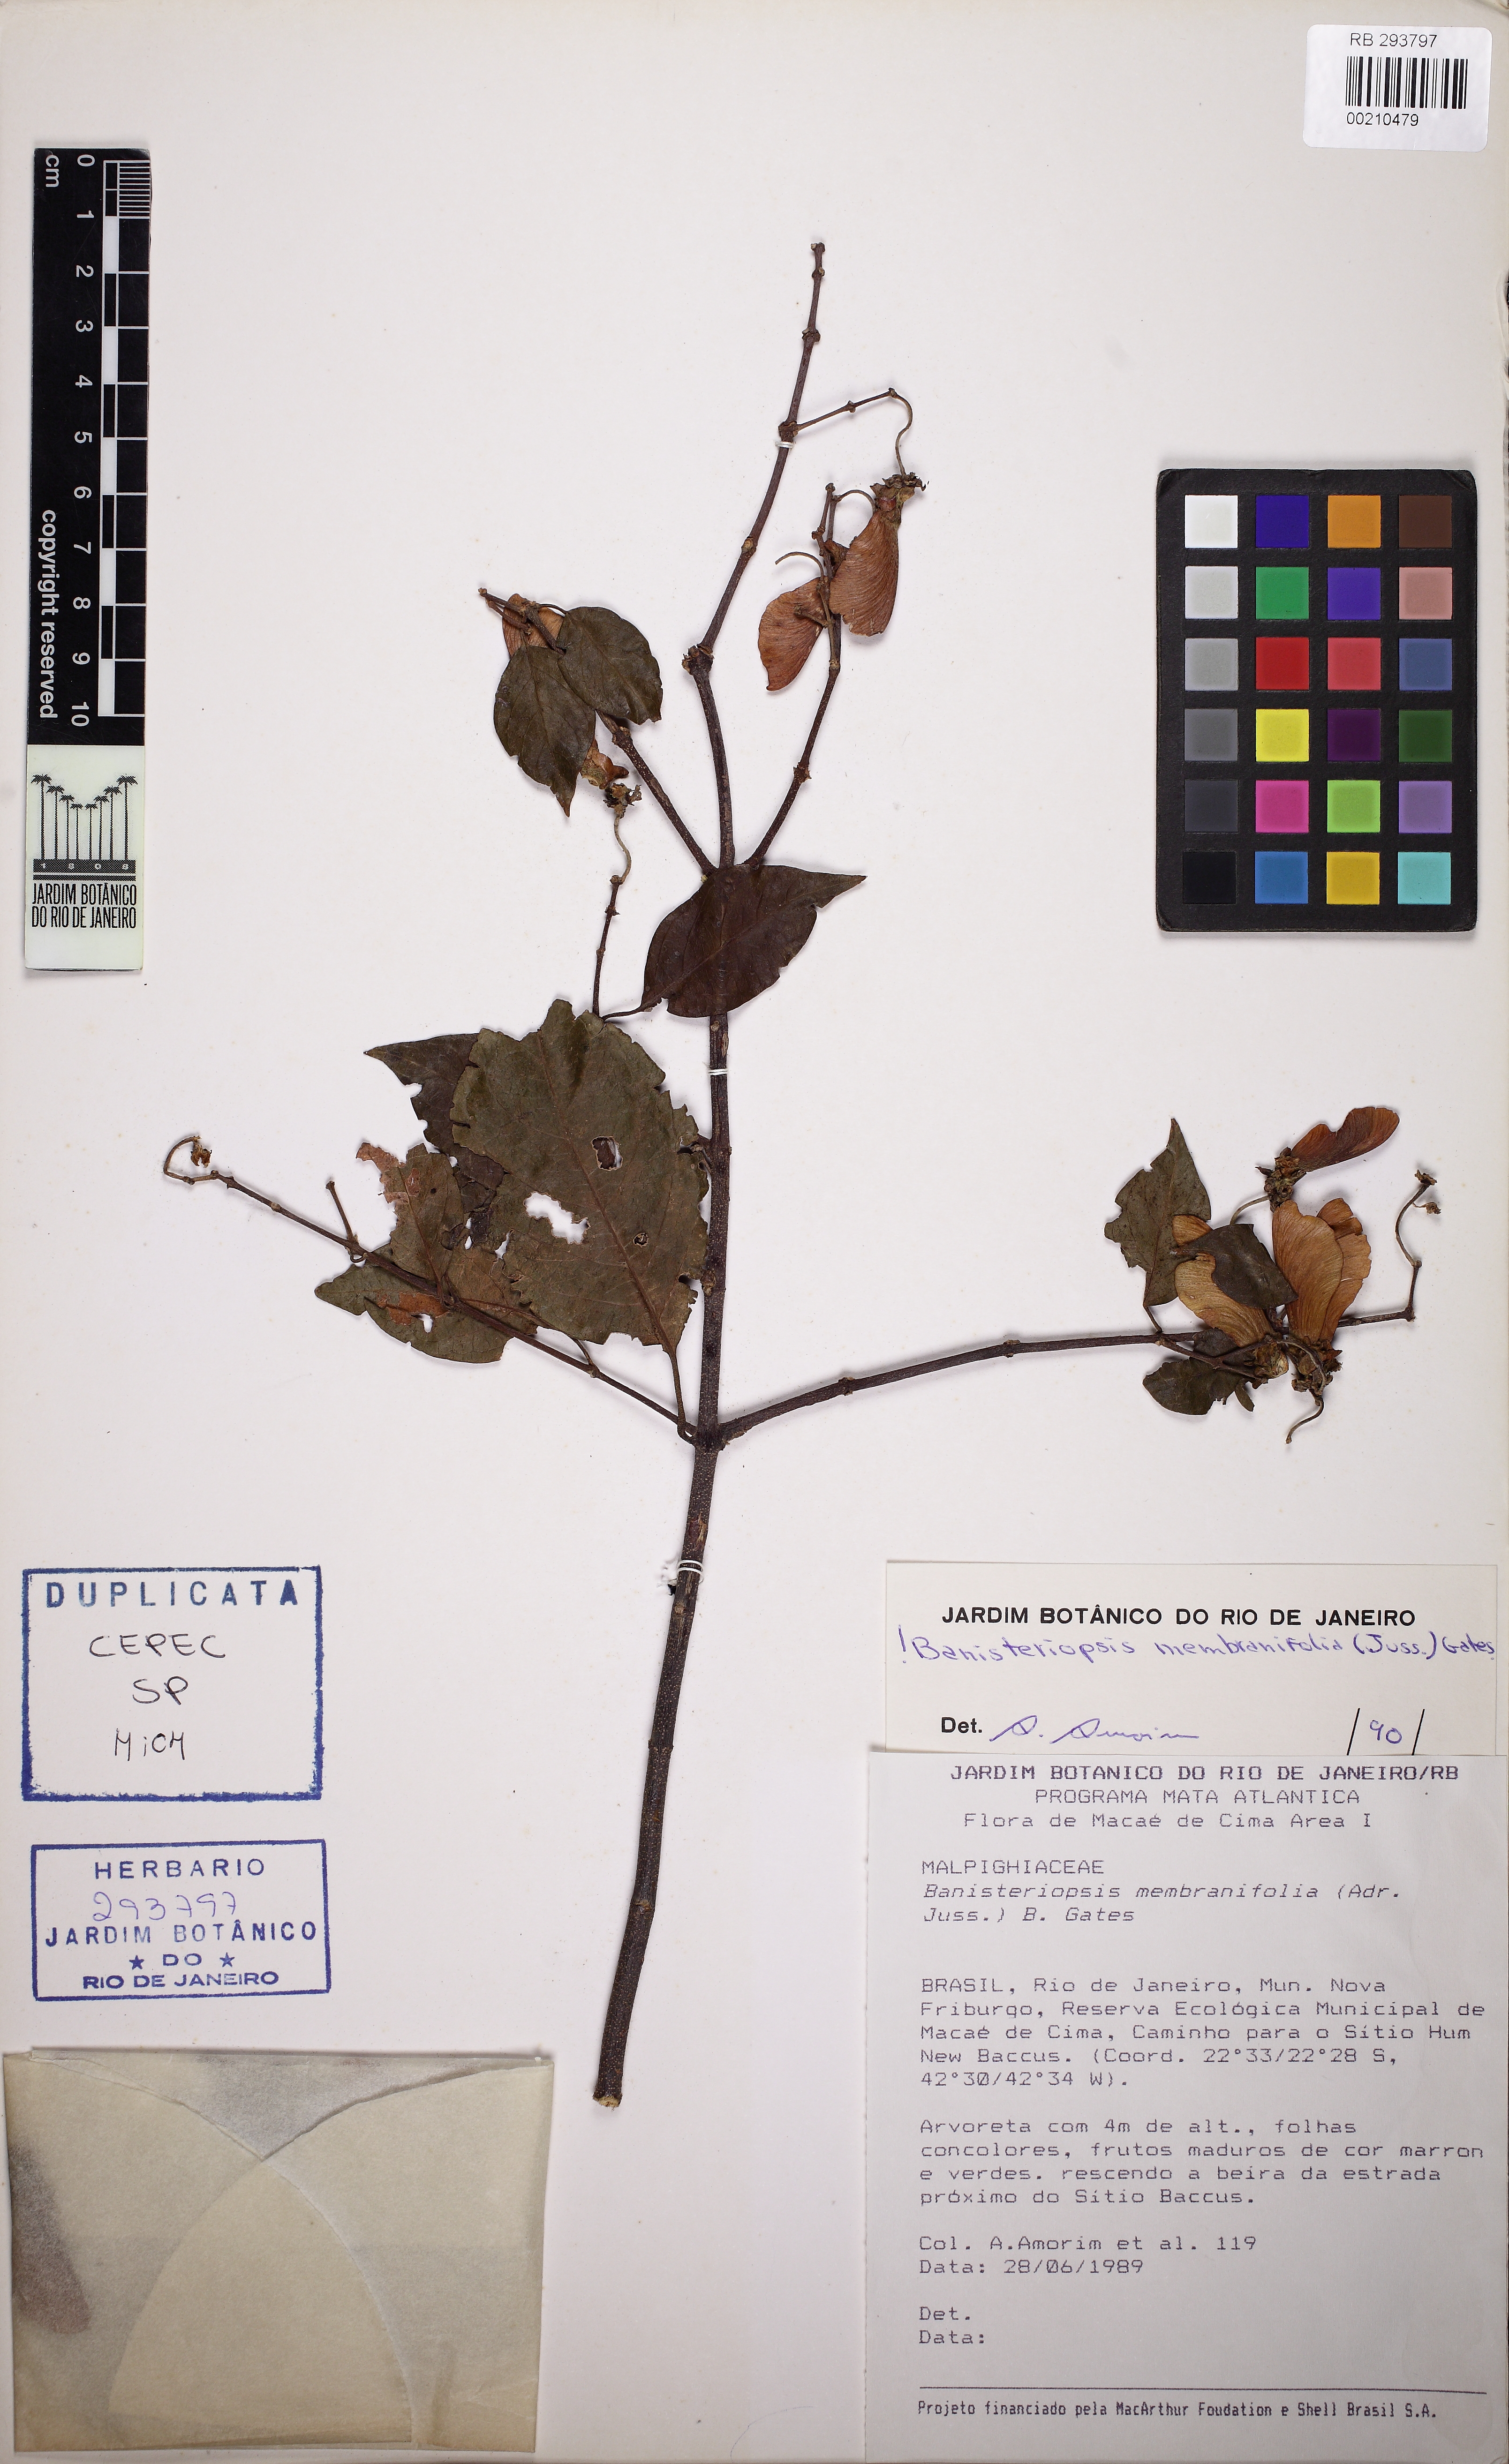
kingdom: Plantae
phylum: Tracheophyta
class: Magnoliopsida
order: Malpighiales
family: Malpighiaceae
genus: Banisteriopsis
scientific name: Banisteriopsis membranifolia
